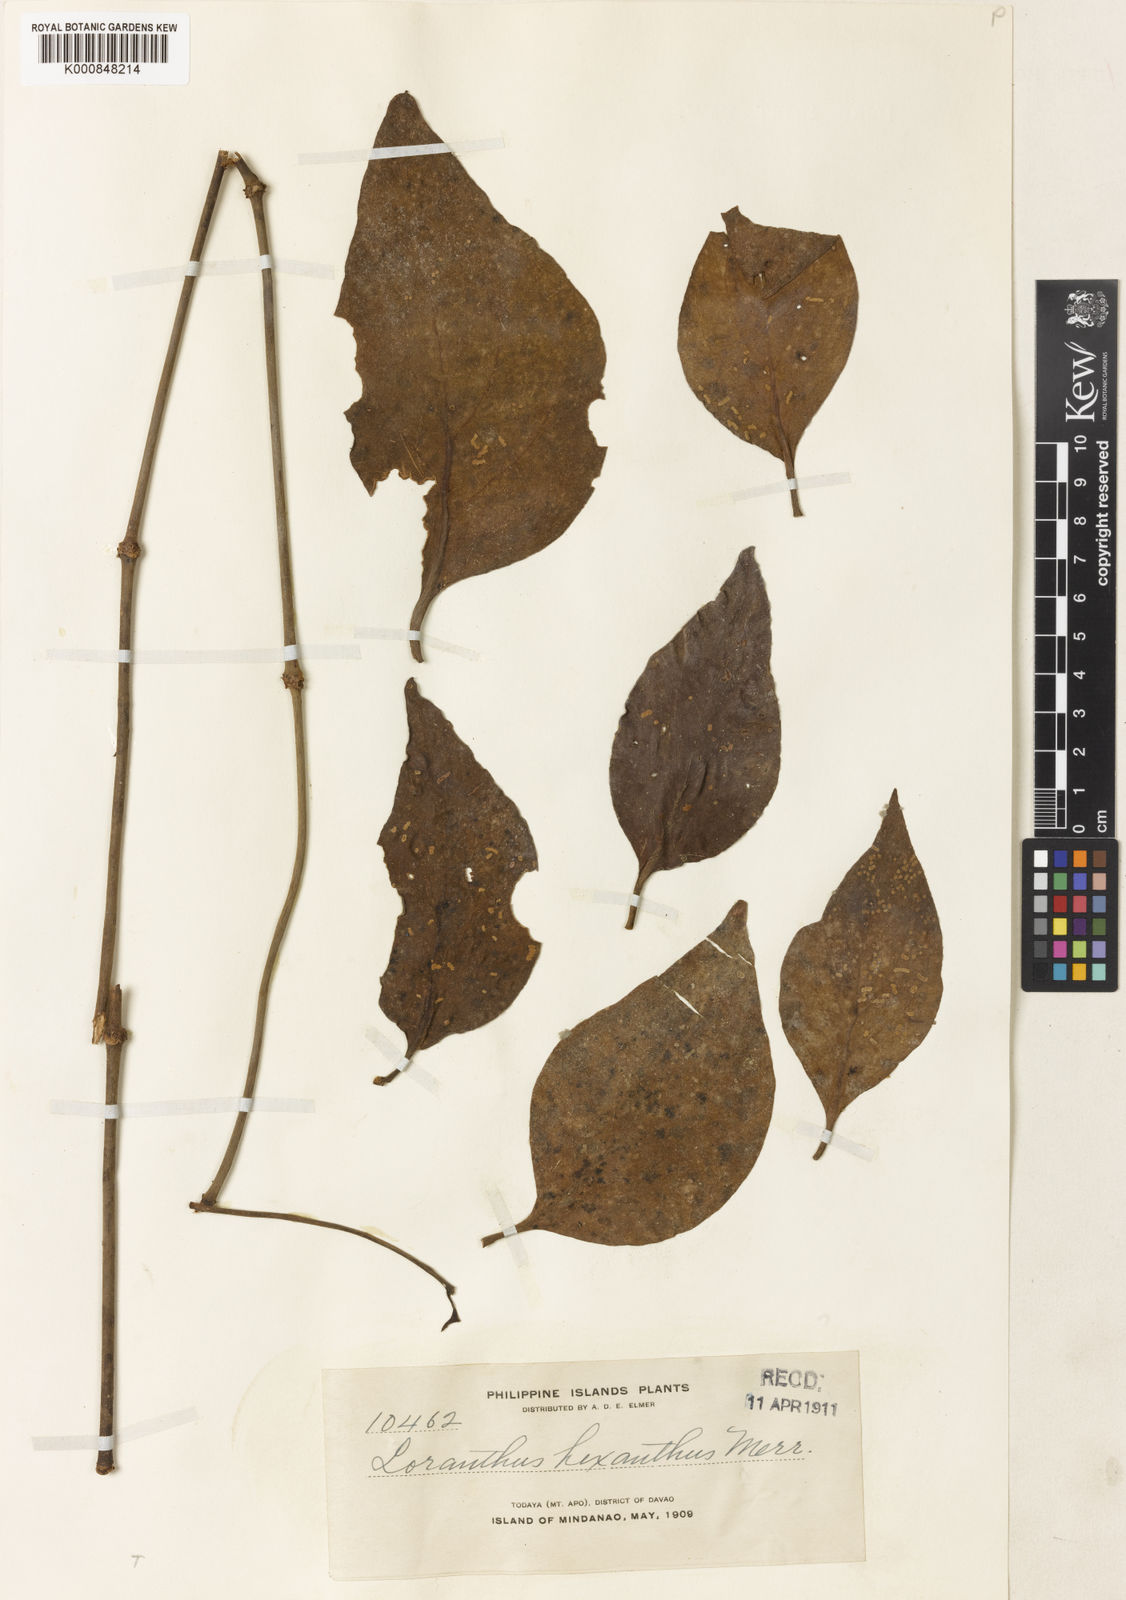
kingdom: Plantae
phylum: Tracheophyta
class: Magnoliopsida
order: Santalales
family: Loranthaceae
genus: Amyema
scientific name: Amyema hexantha
